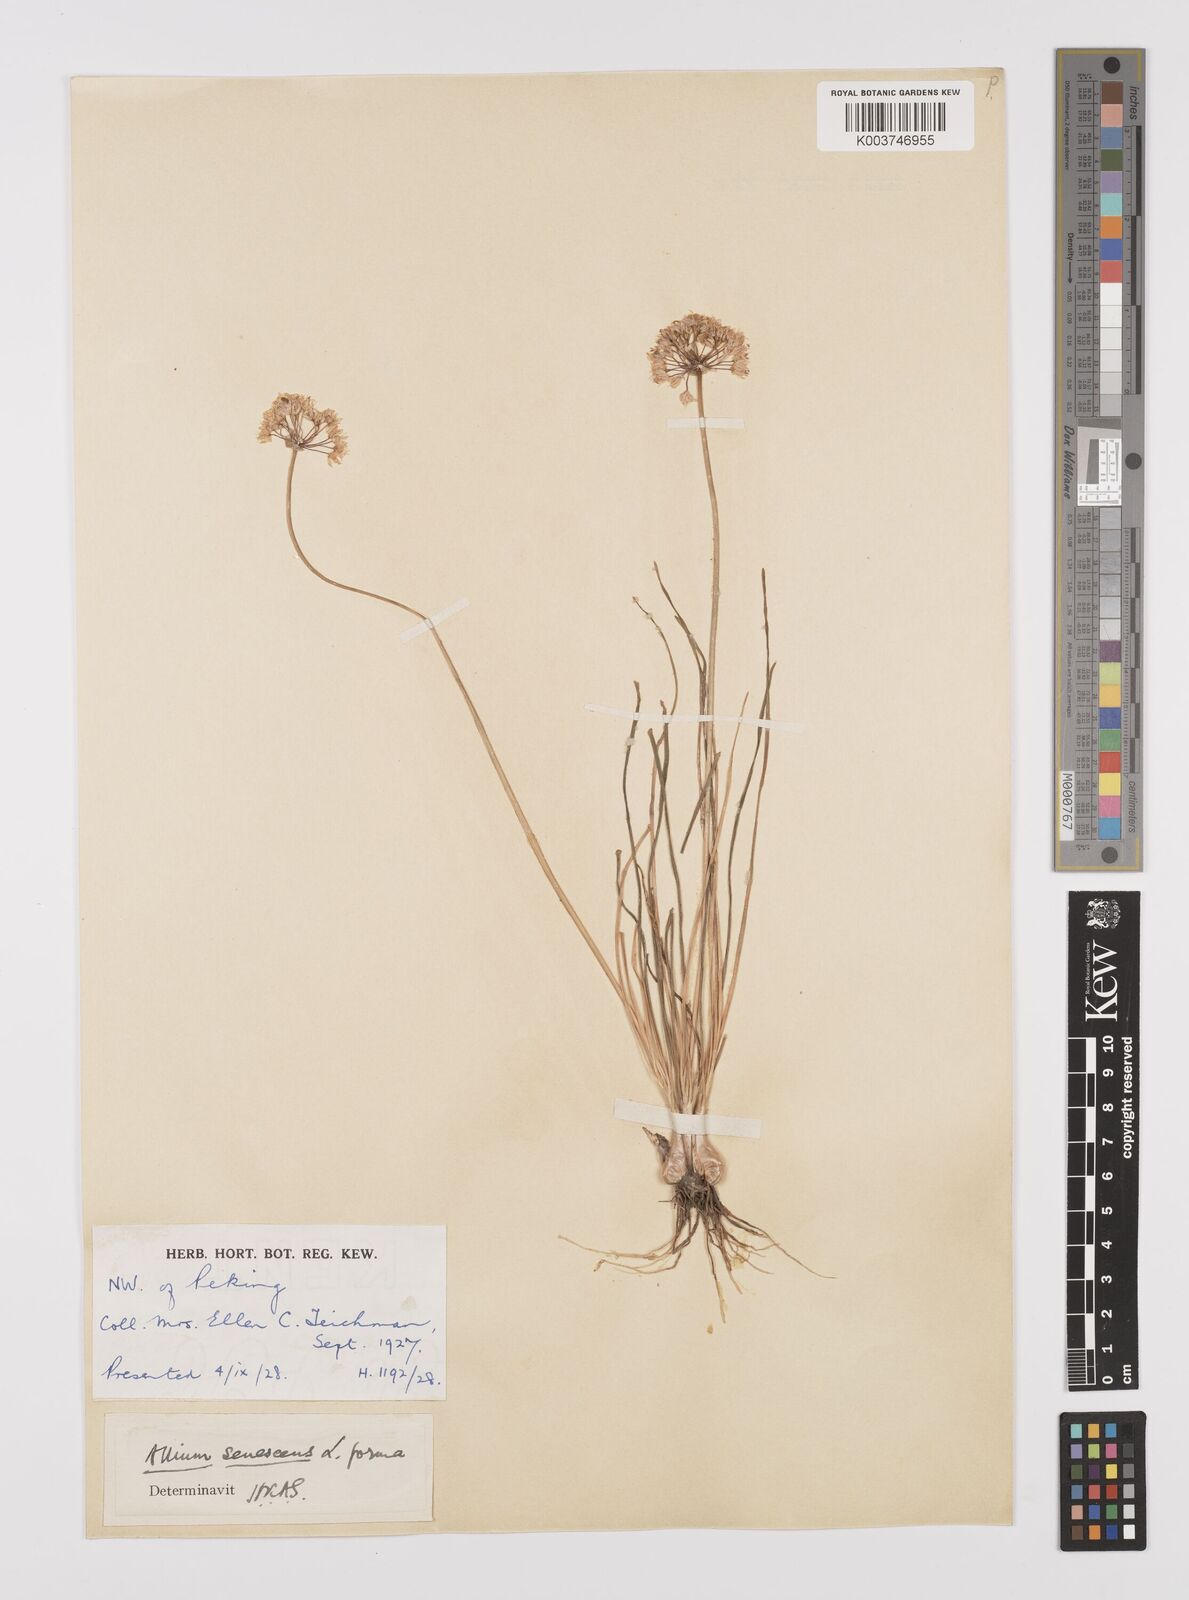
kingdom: Plantae
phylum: Tracheophyta
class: Liliopsida
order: Asparagales
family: Amaryllidaceae
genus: Allium
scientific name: Allium
